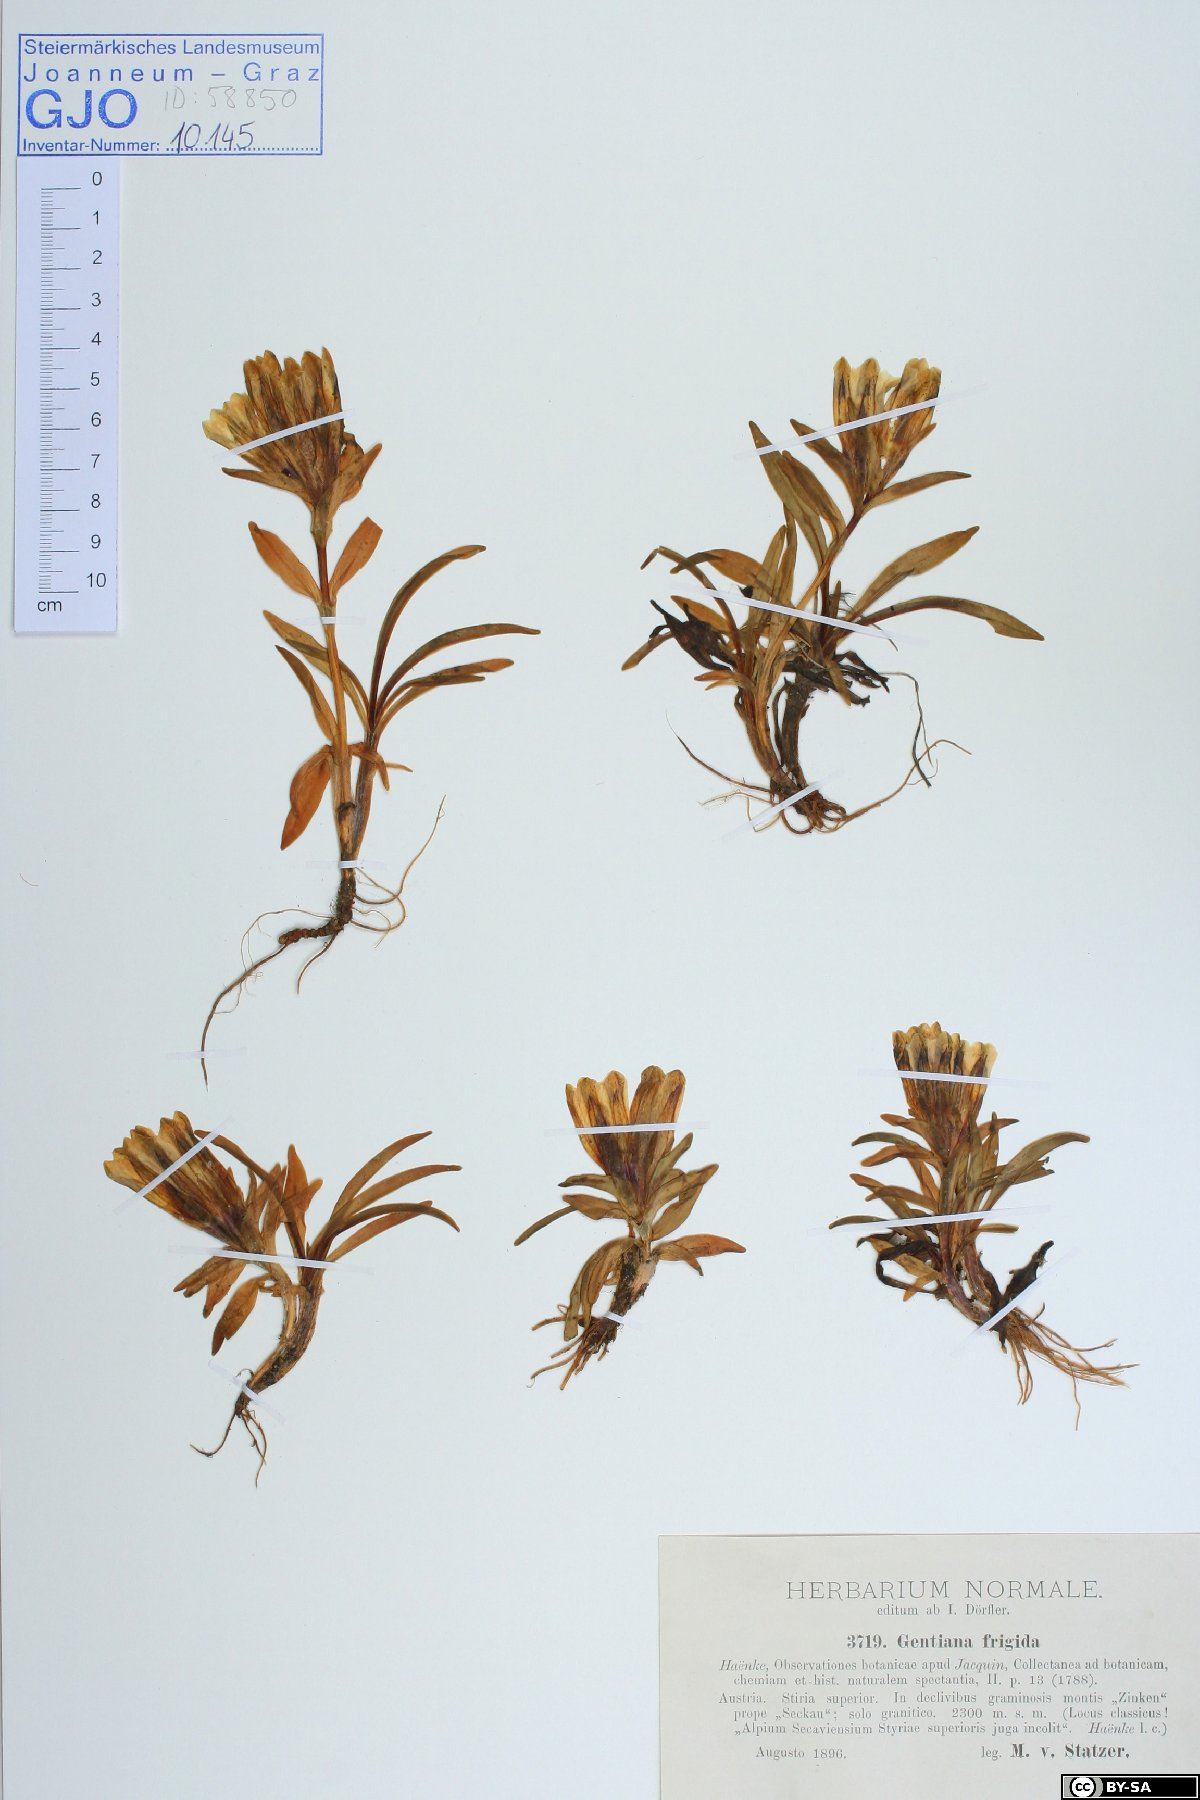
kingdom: Plantae
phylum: Tracheophyta
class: Magnoliopsida
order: Gentianales
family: Gentianaceae
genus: Gentiana
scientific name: Gentiana frigida
